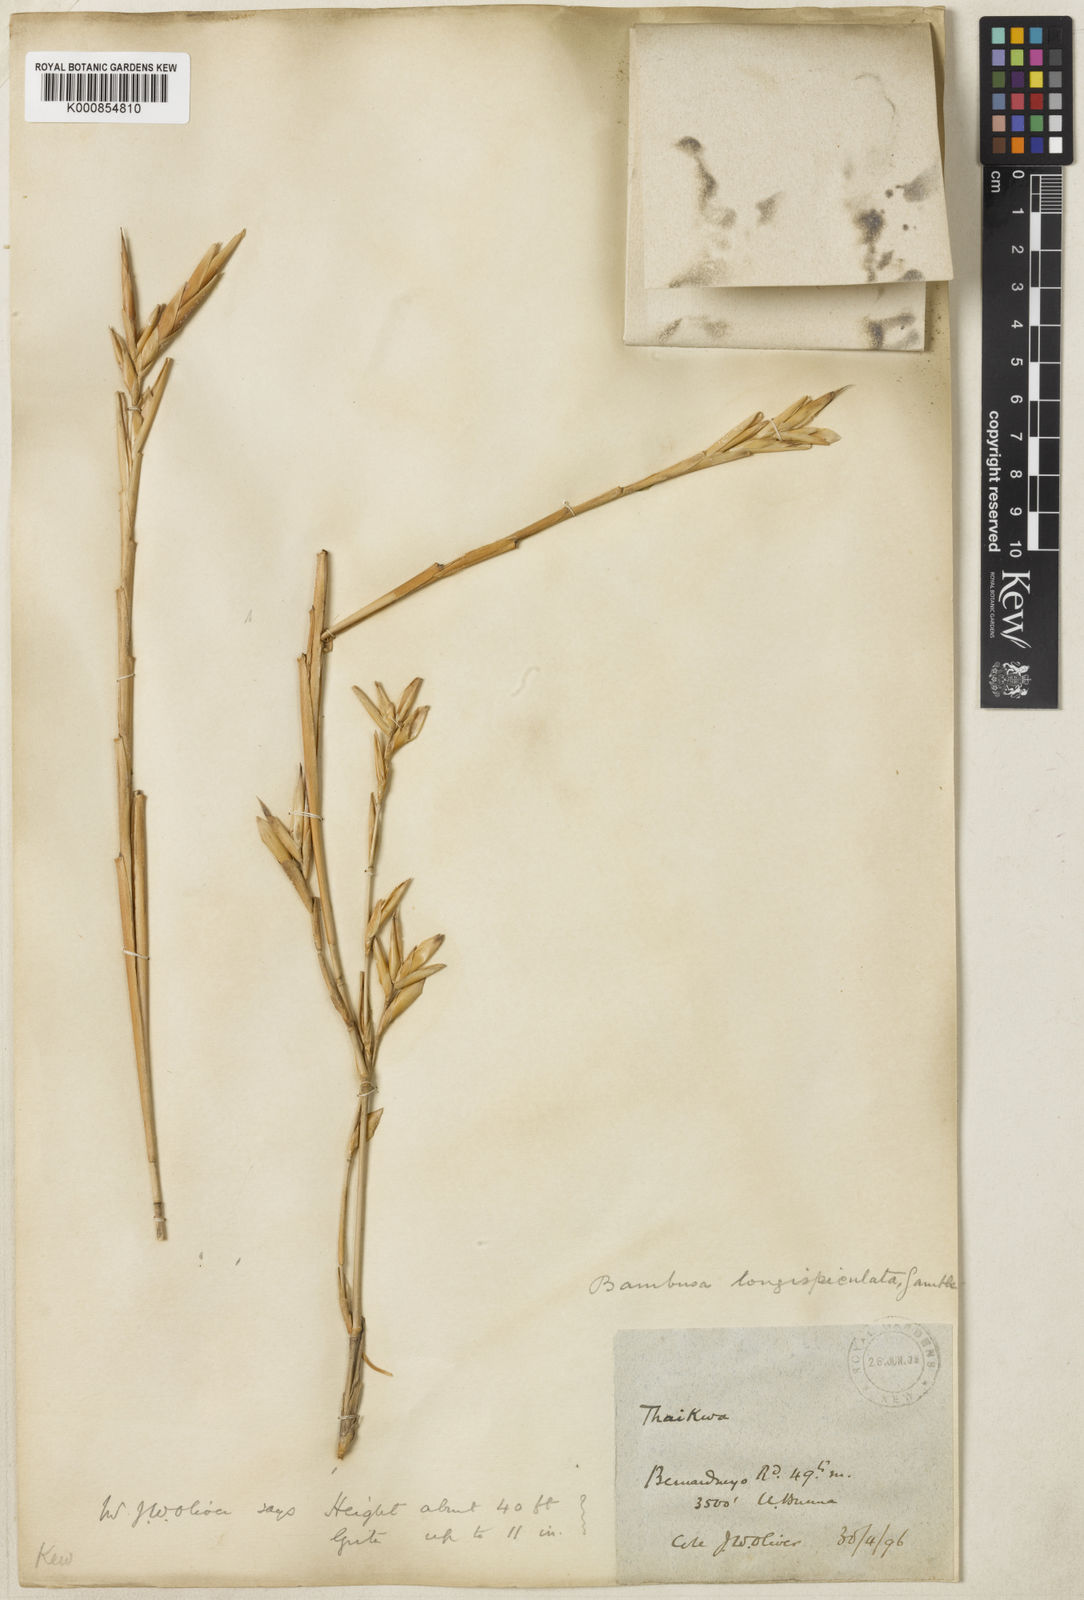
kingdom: Plantae
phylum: Tracheophyta
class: Liliopsida
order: Poales
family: Poaceae
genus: Bambusa
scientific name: Bambusa
